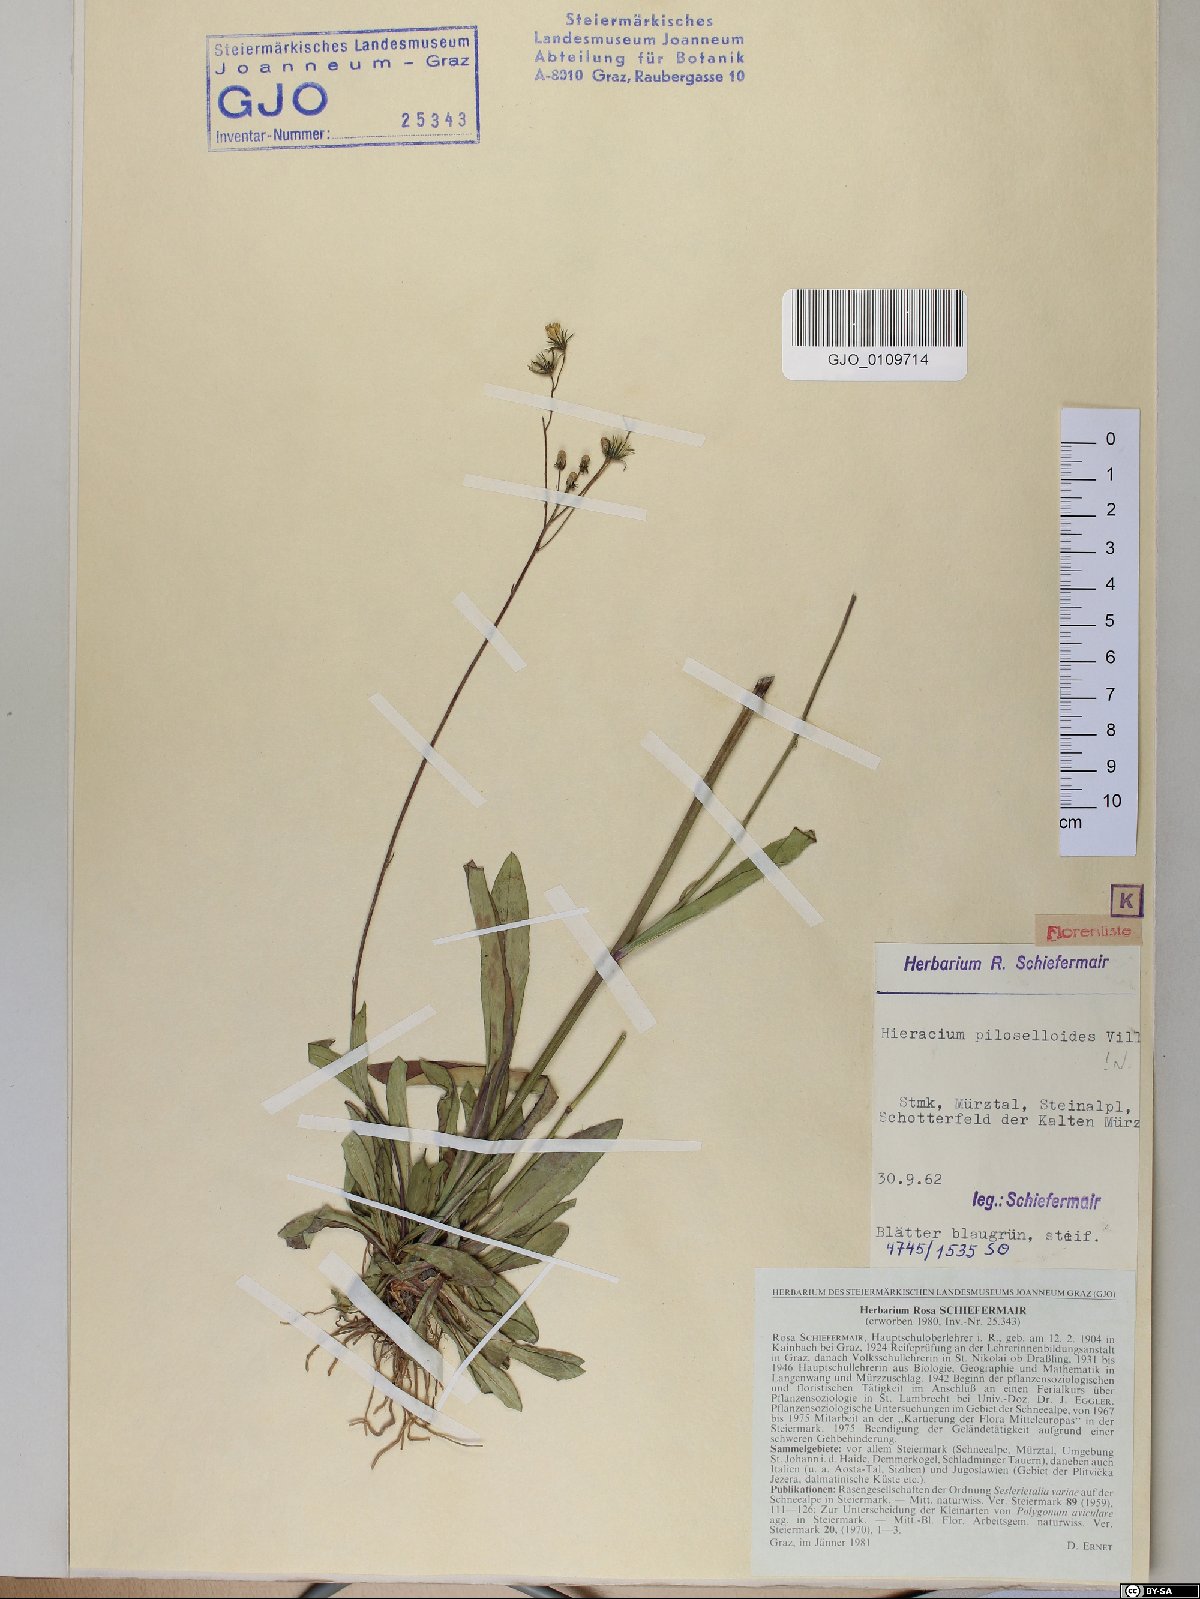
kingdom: Plantae
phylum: Tracheophyta
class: Magnoliopsida
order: Asterales
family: Asteraceae
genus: Pilosella
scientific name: Pilosella piloselloides
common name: Glaucous king-devil
